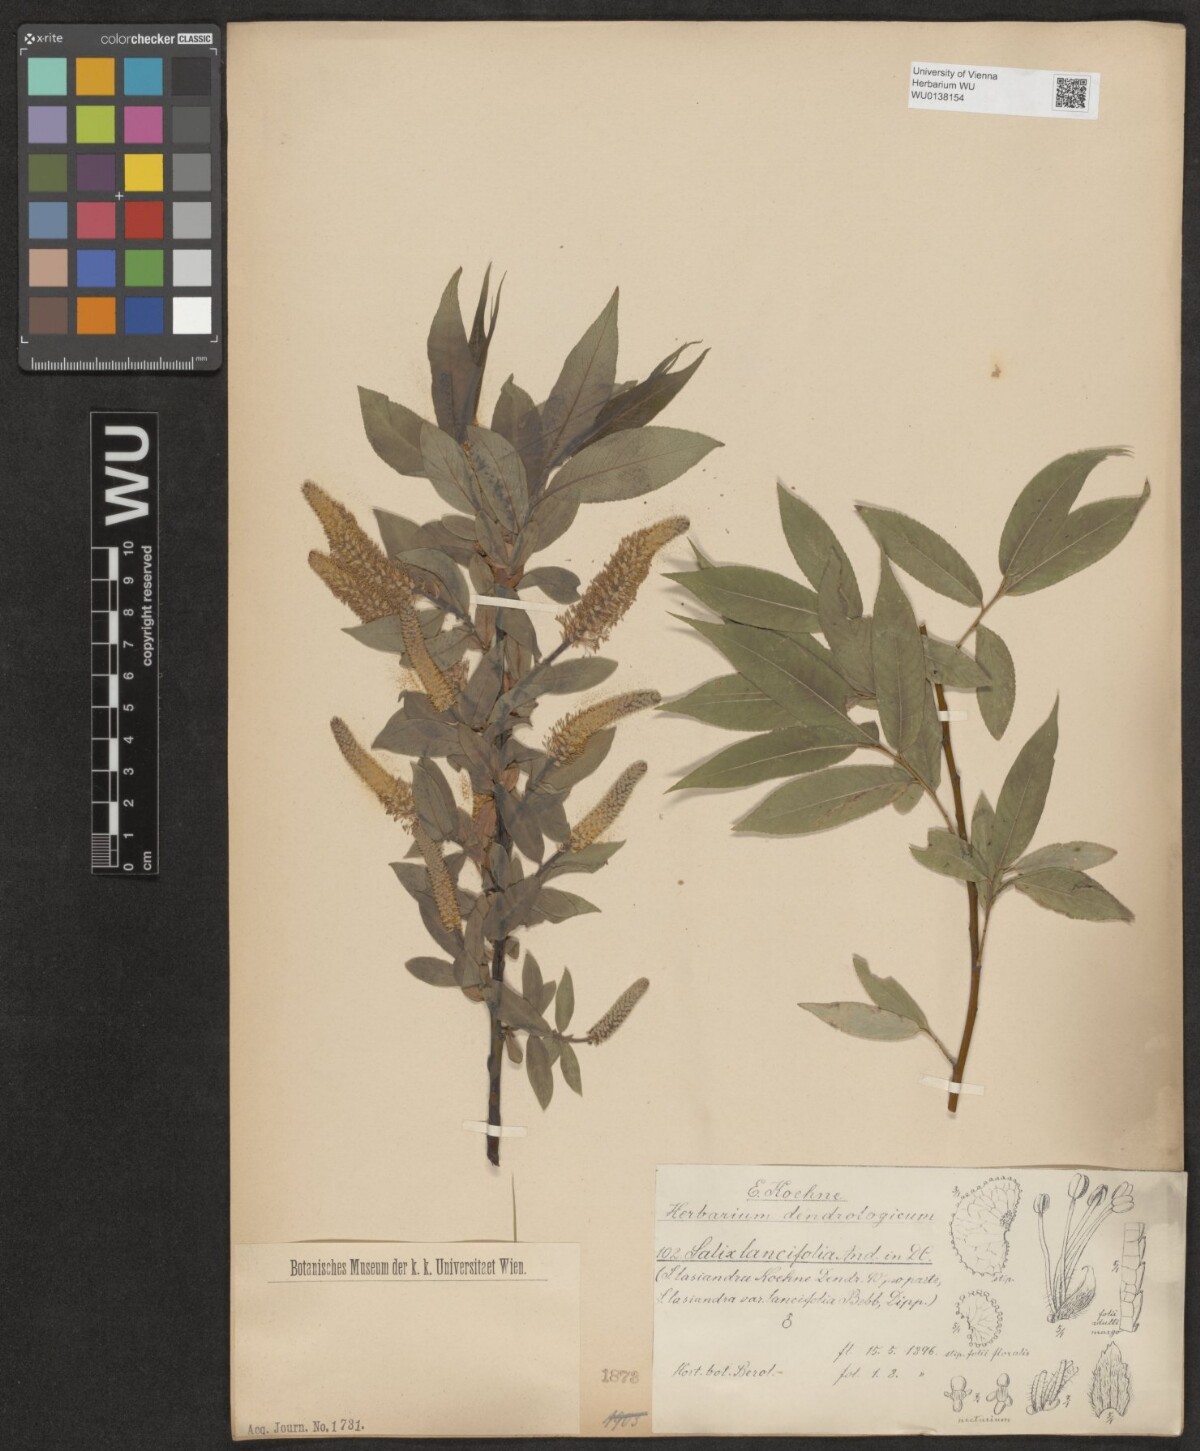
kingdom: Plantae
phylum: Tracheophyta
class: Magnoliopsida
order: Malpighiales
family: Salicaceae
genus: Salix
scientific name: Salix lucida
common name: Shining willow
